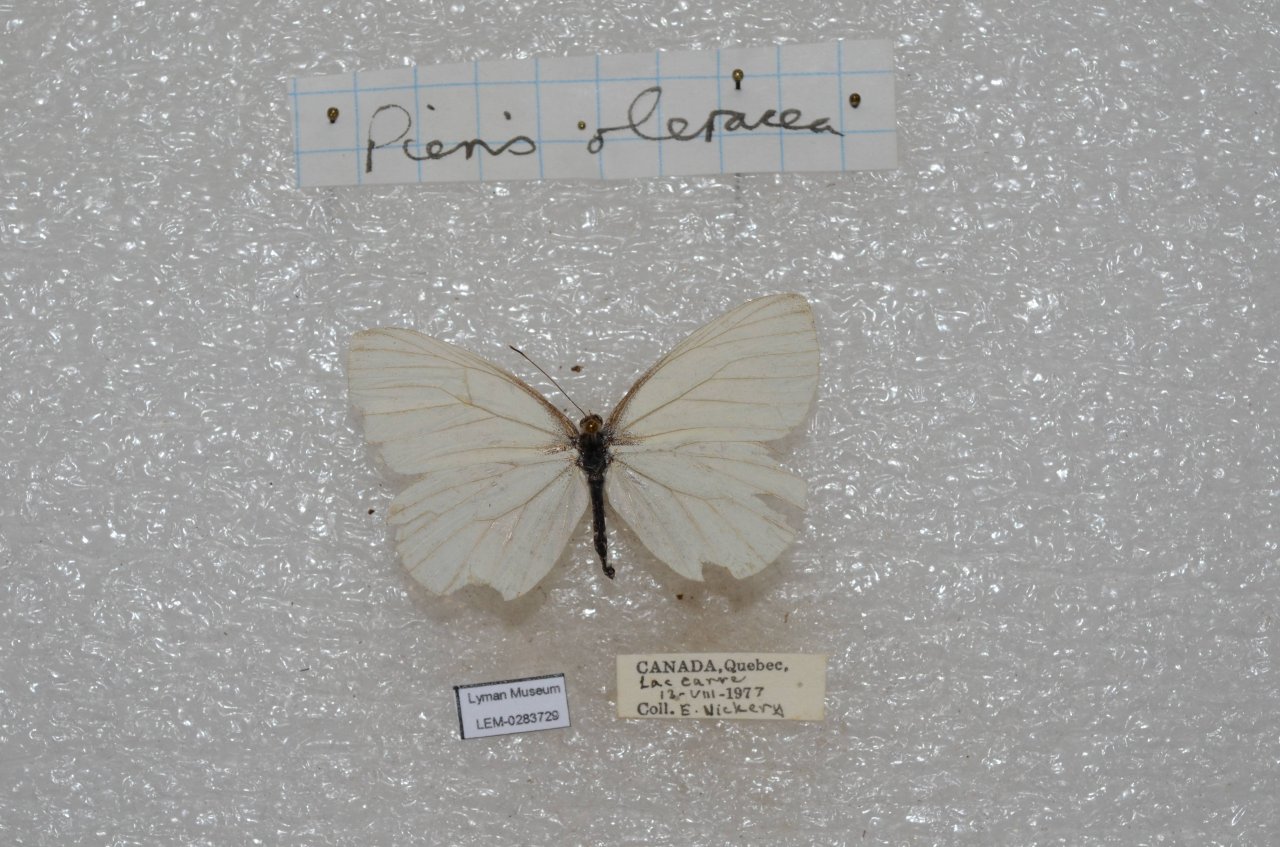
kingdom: Animalia
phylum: Arthropoda
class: Insecta
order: Lepidoptera
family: Pieridae
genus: Pieris
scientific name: Pieris oleracea
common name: Mustard White
